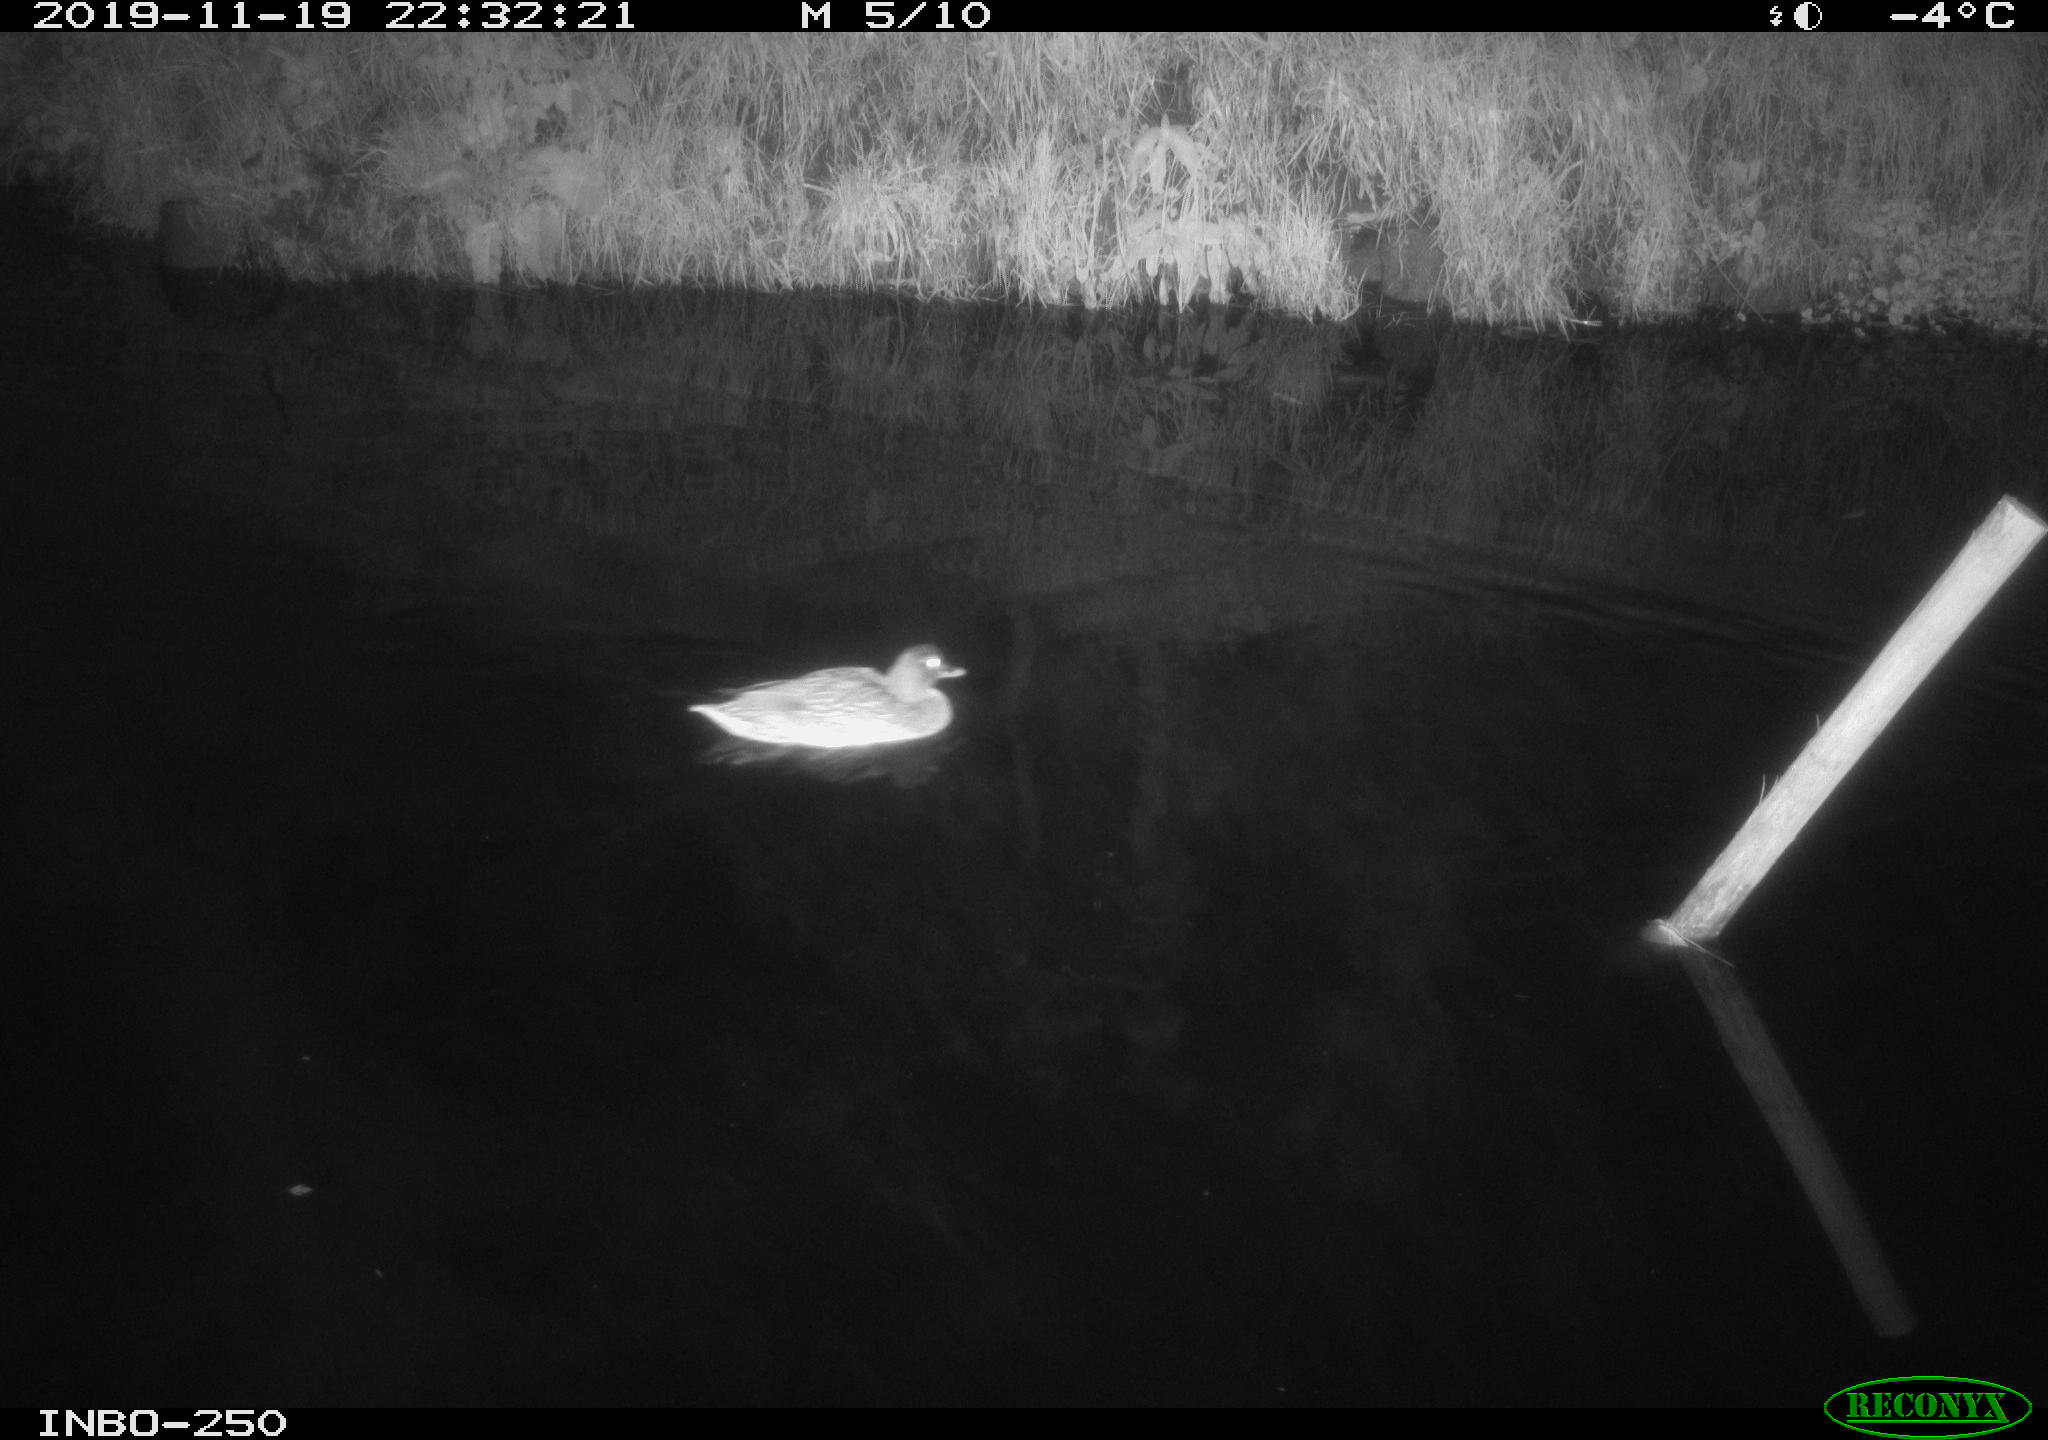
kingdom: Animalia
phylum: Chordata
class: Aves
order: Anseriformes
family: Anatidae
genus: Anas
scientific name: Anas platyrhynchos
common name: Mallard
